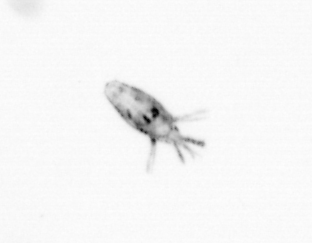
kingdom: Animalia
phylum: Arthropoda
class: Copepoda
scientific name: Copepoda
